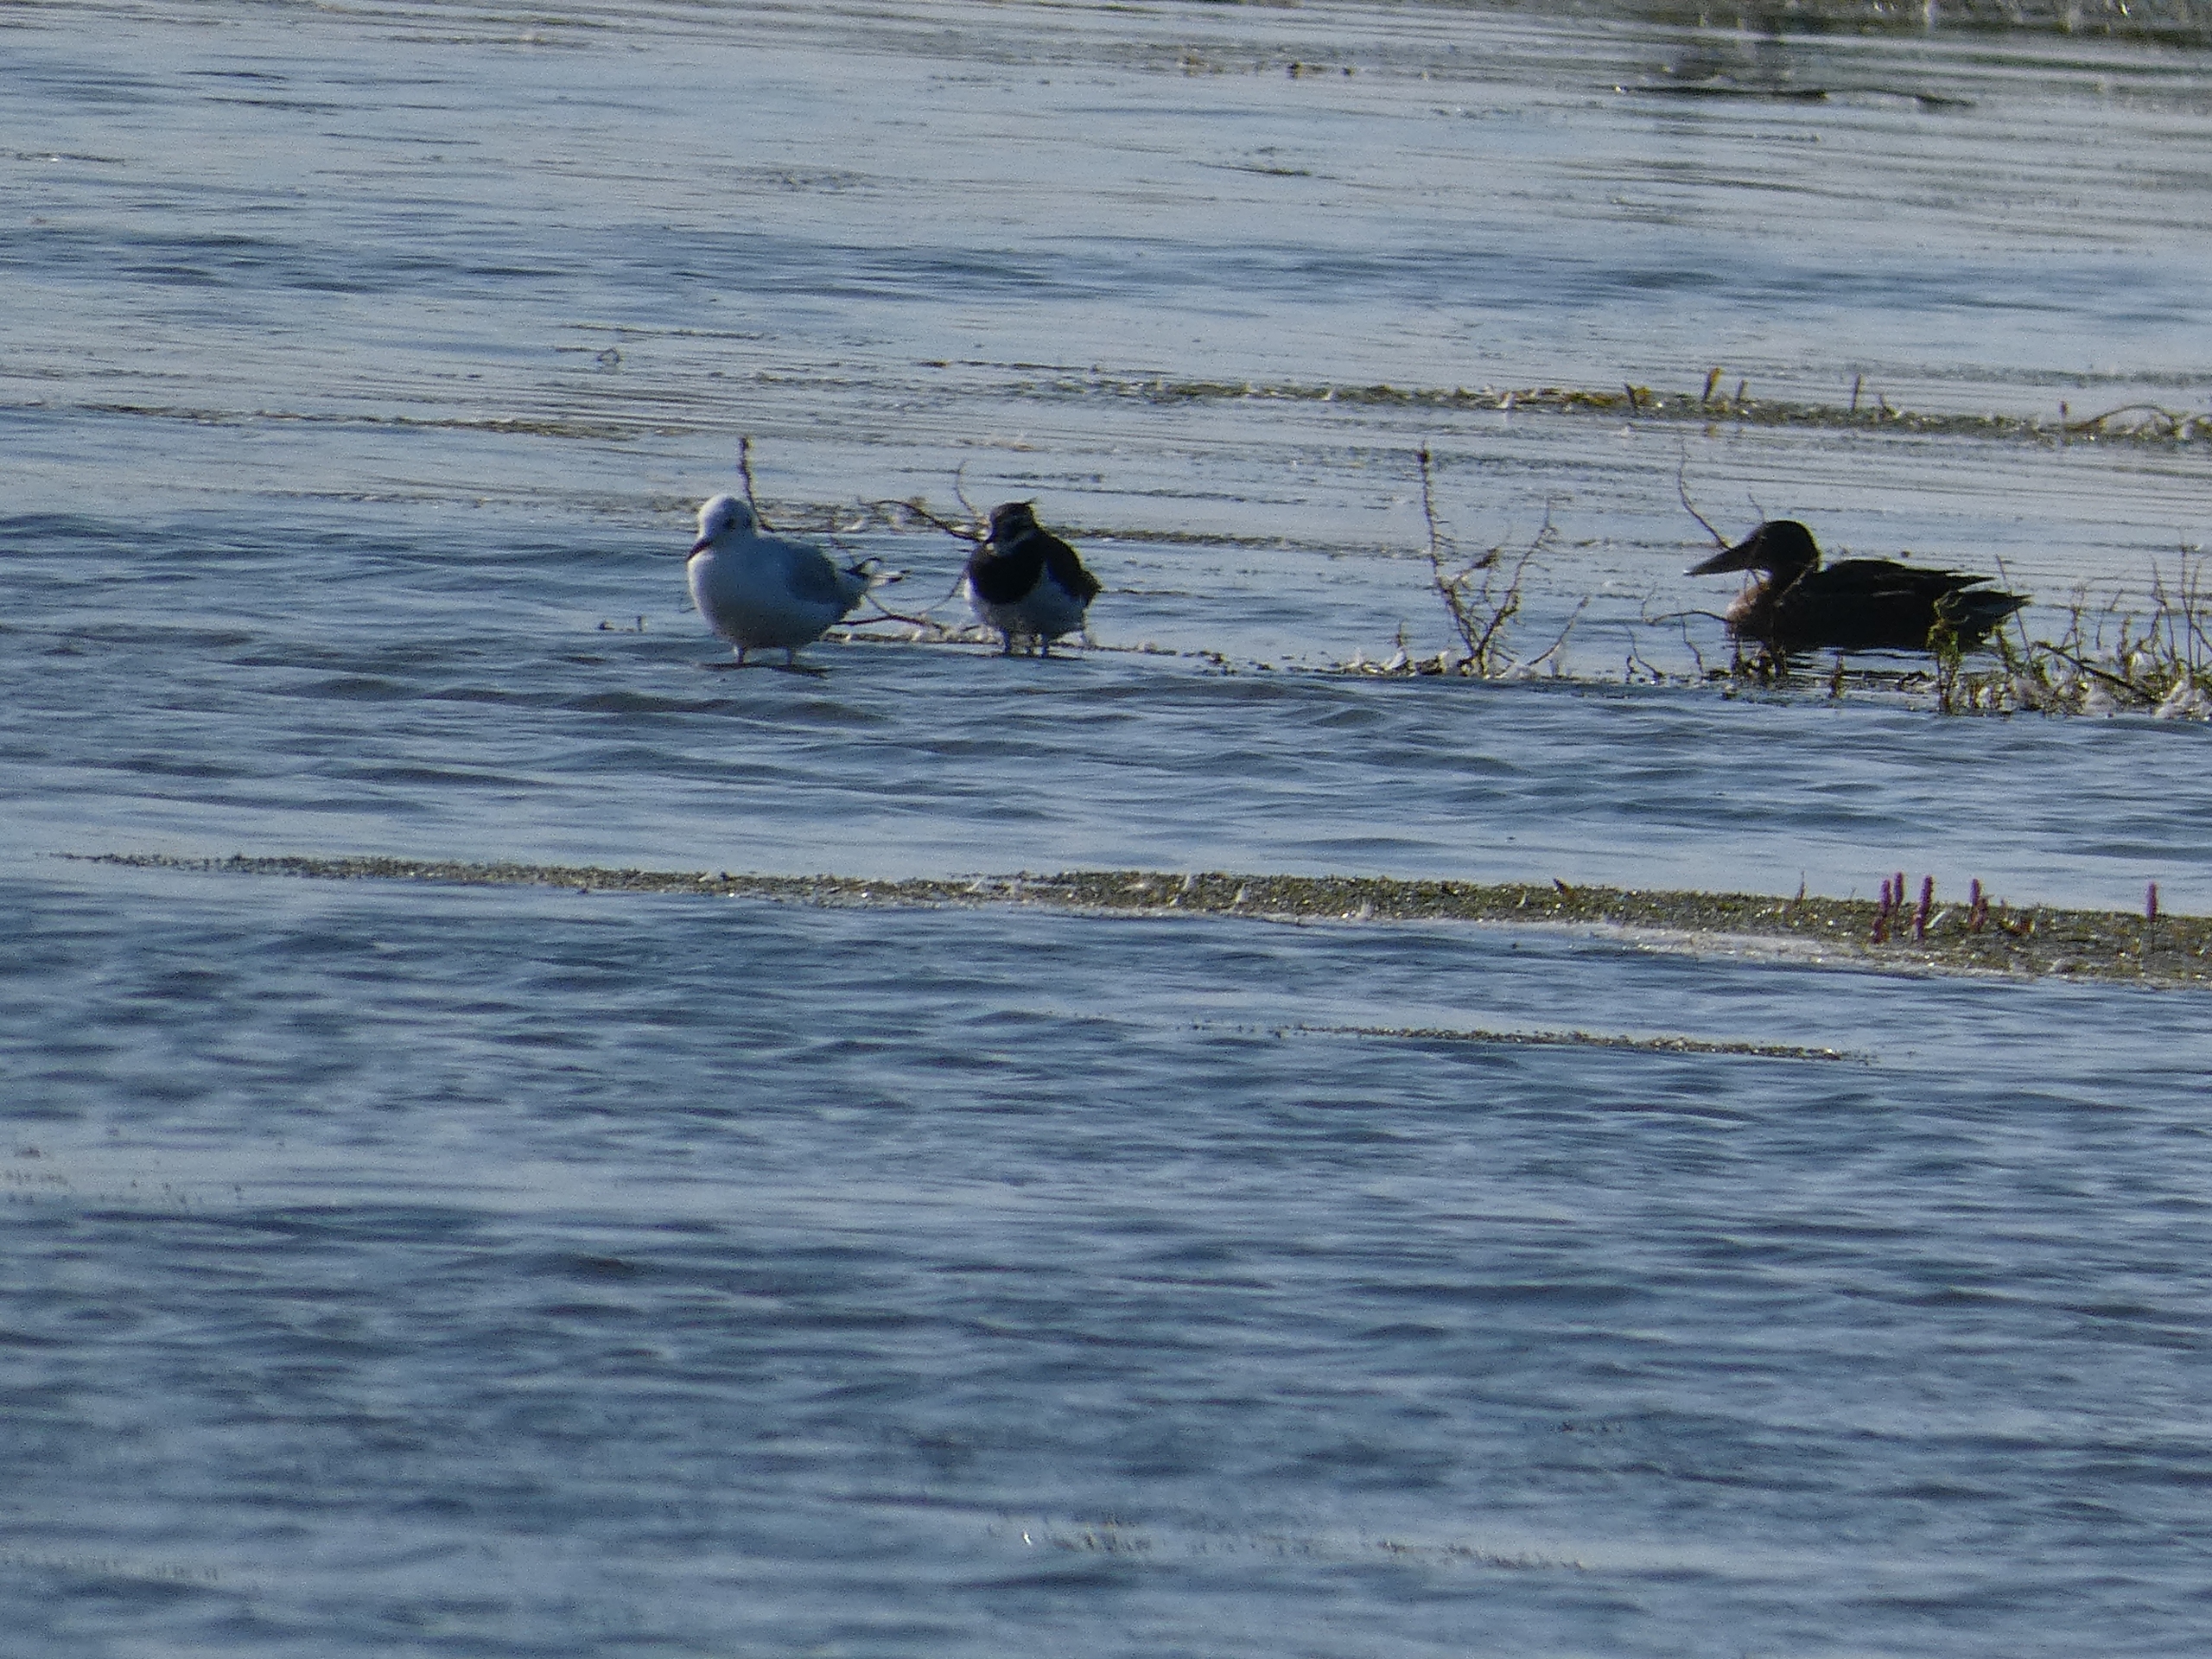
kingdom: Animalia
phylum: Chordata
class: Aves
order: Charadriiformes
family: Laridae
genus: Chroicocephalus
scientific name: Chroicocephalus ridibundus
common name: Hættemåge
